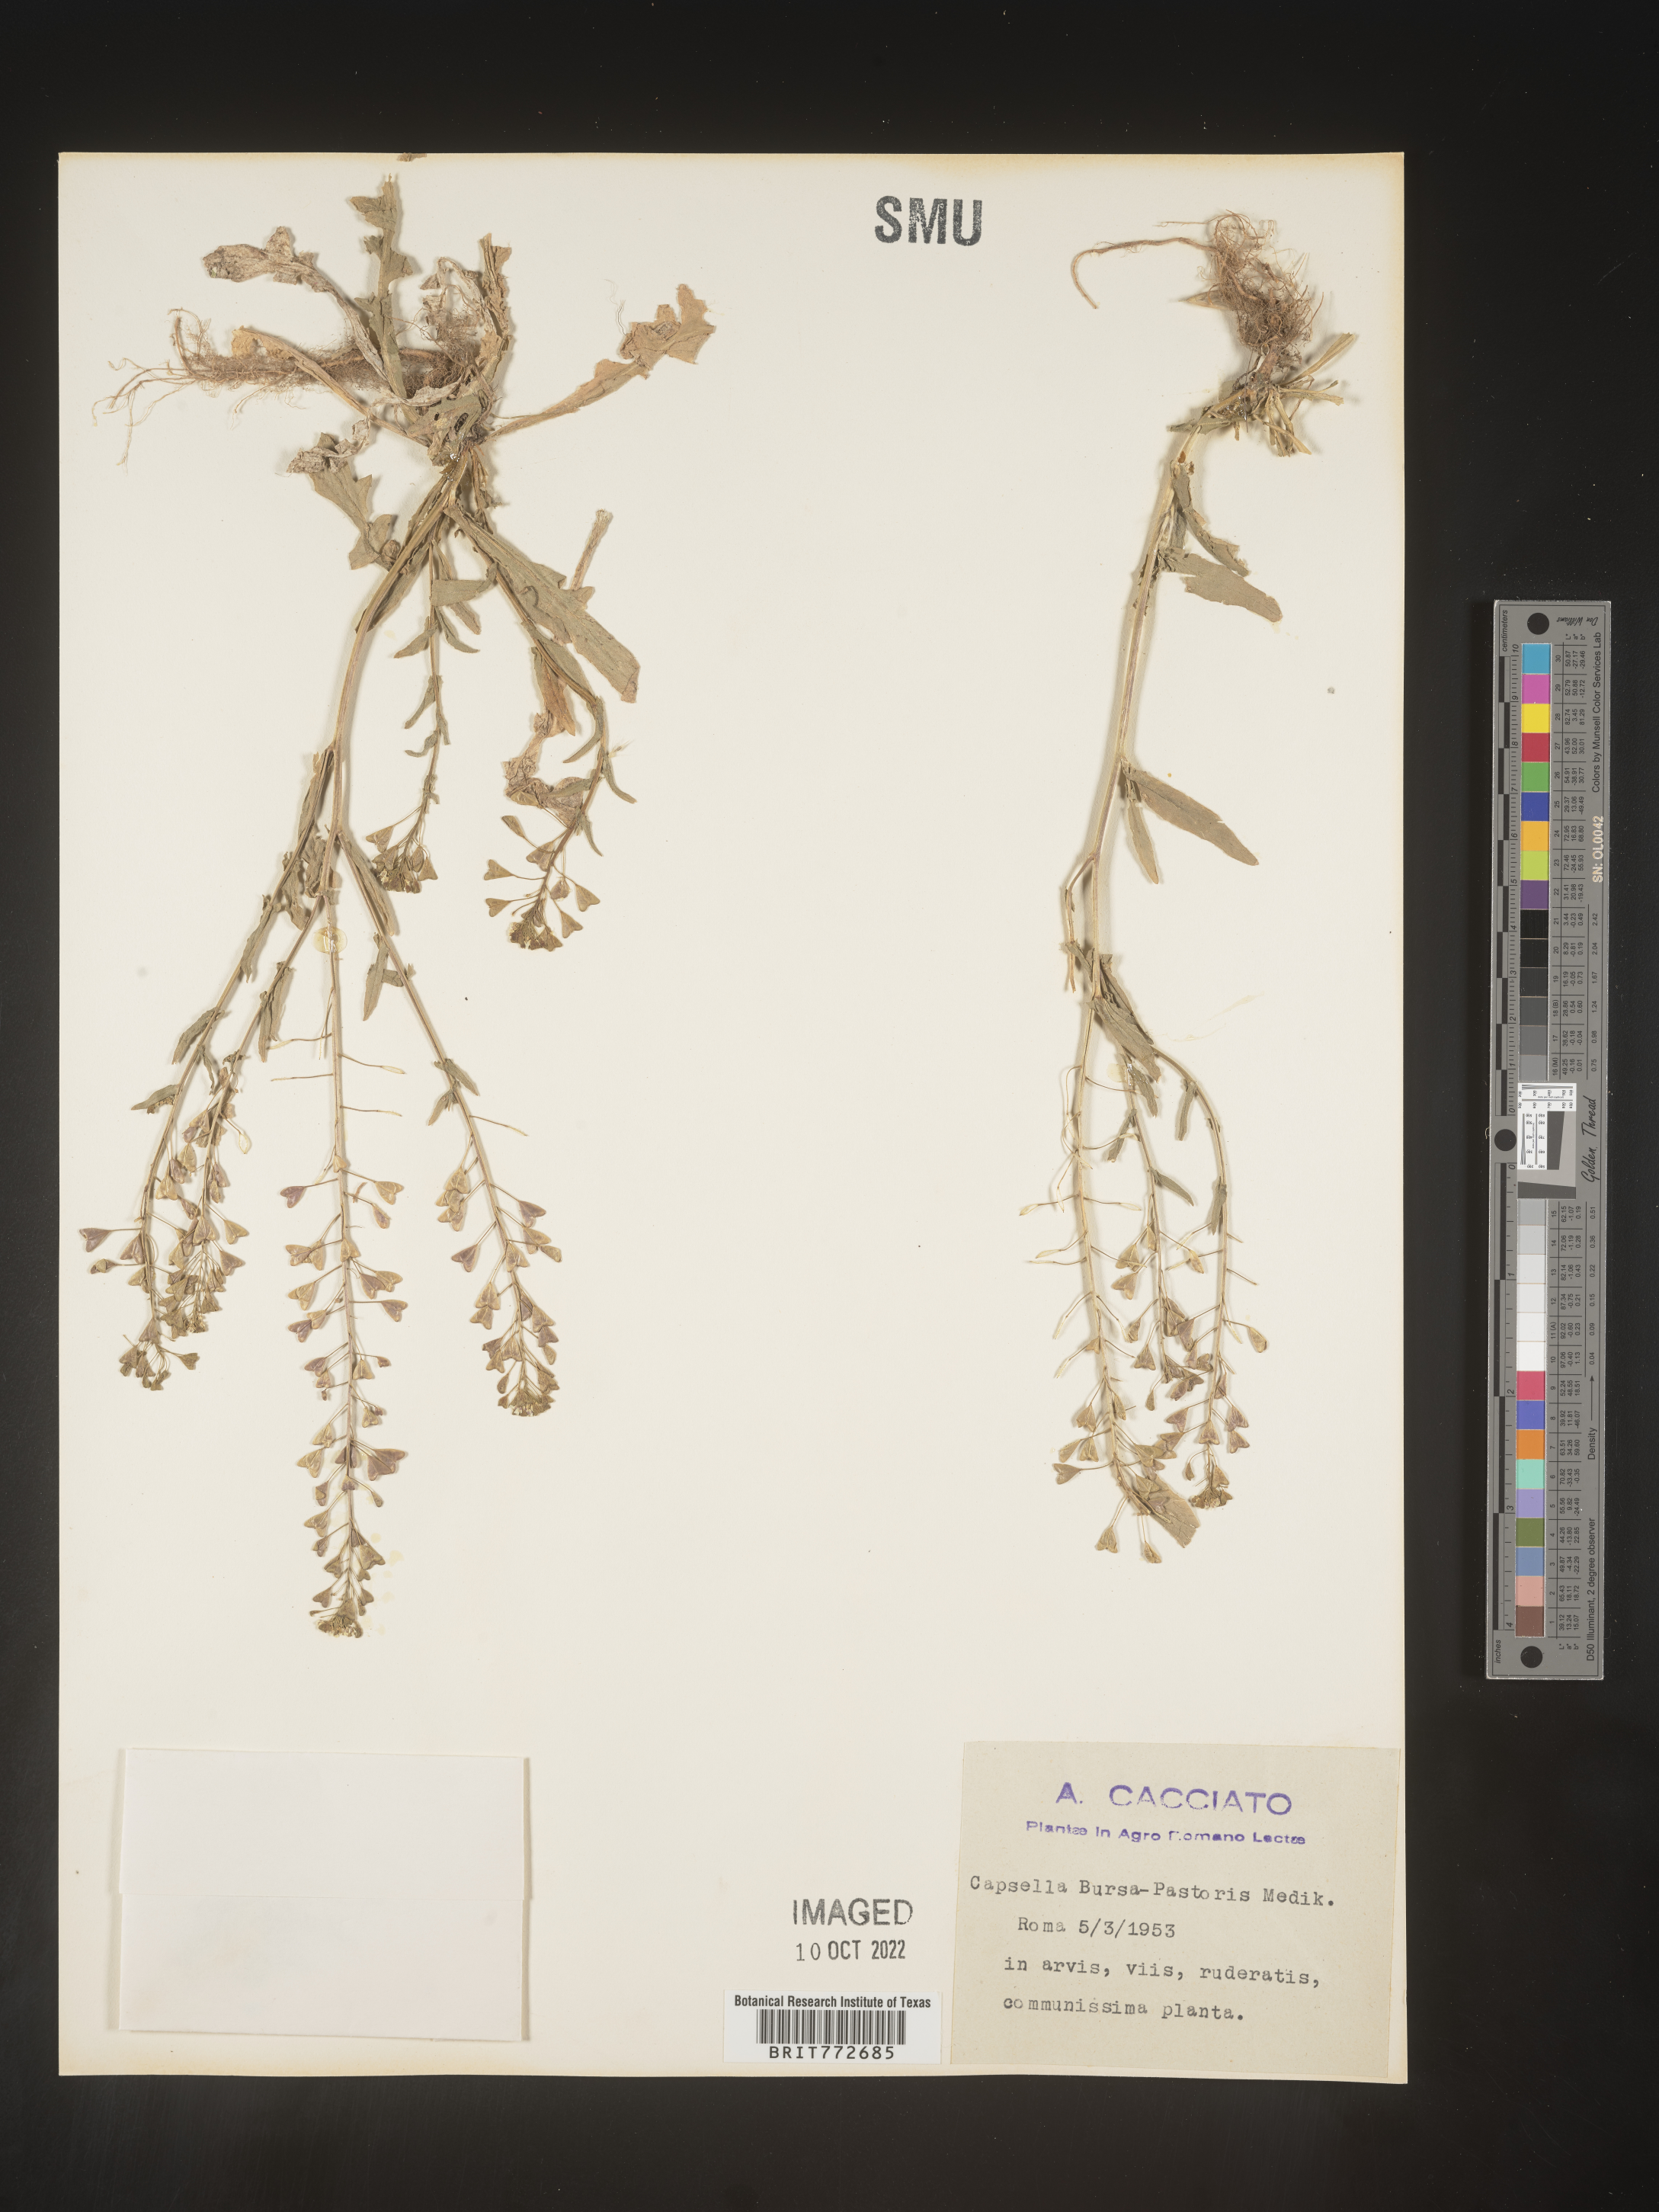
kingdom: Plantae
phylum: Tracheophyta
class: Magnoliopsida
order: Brassicales
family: Brassicaceae
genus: Capsella
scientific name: Capsella
